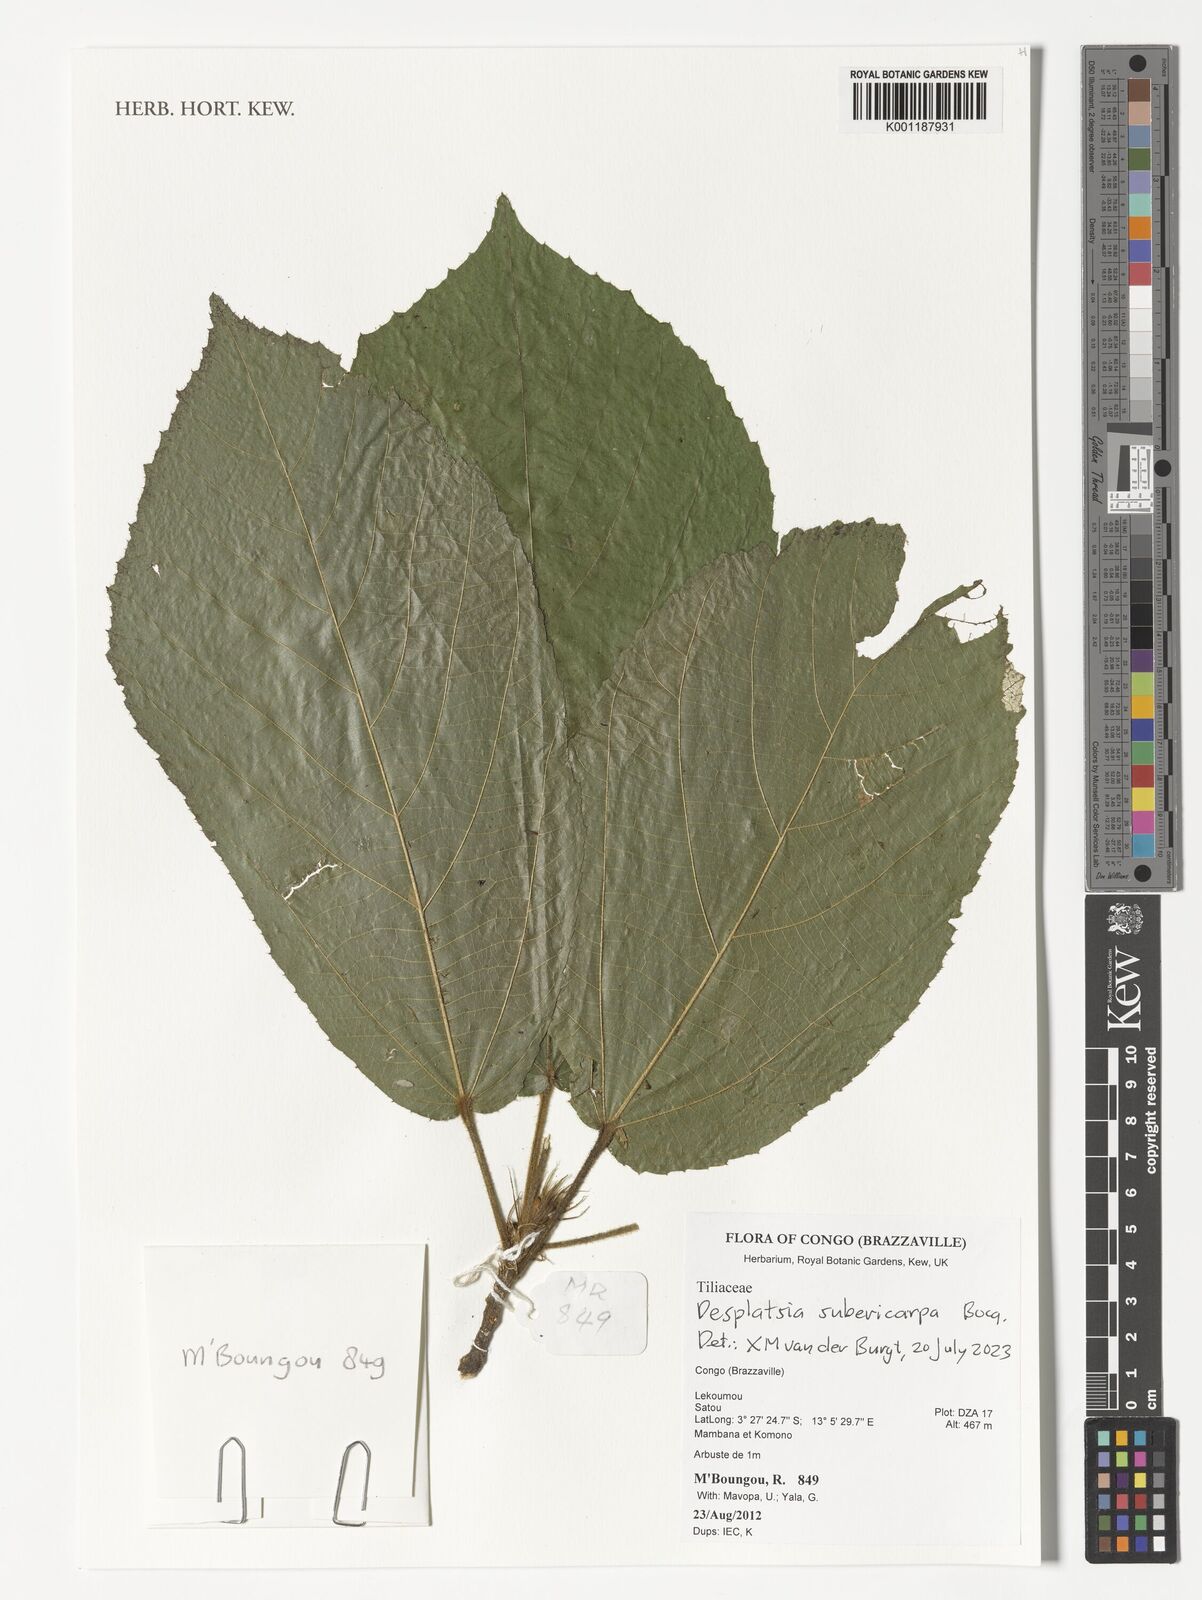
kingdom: Plantae
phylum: Tracheophyta
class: Magnoliopsida
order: Malvales
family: Malvaceae
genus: Desplatsia
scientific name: Desplatsia subericarpa
